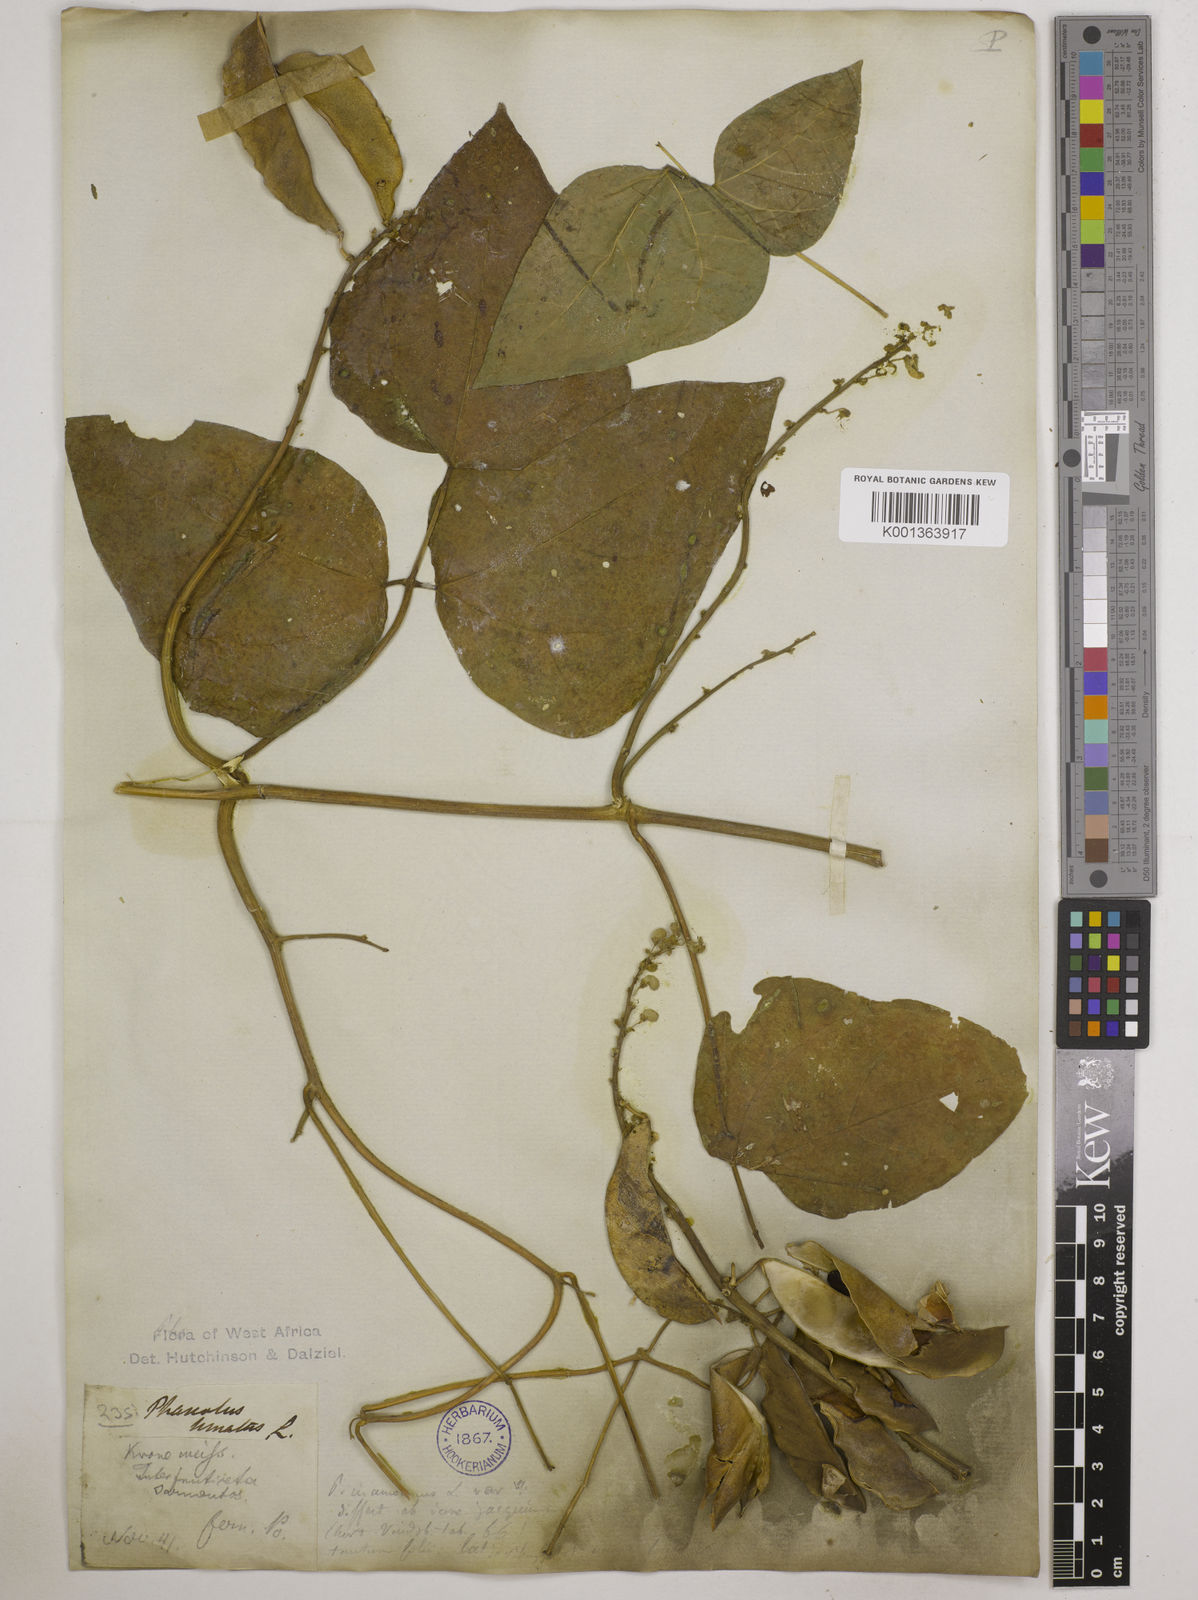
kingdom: Plantae
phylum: Tracheophyta
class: Magnoliopsida
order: Fabales
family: Fabaceae
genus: Phaseolus
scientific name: Phaseolus lunatus
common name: Sieva bean
